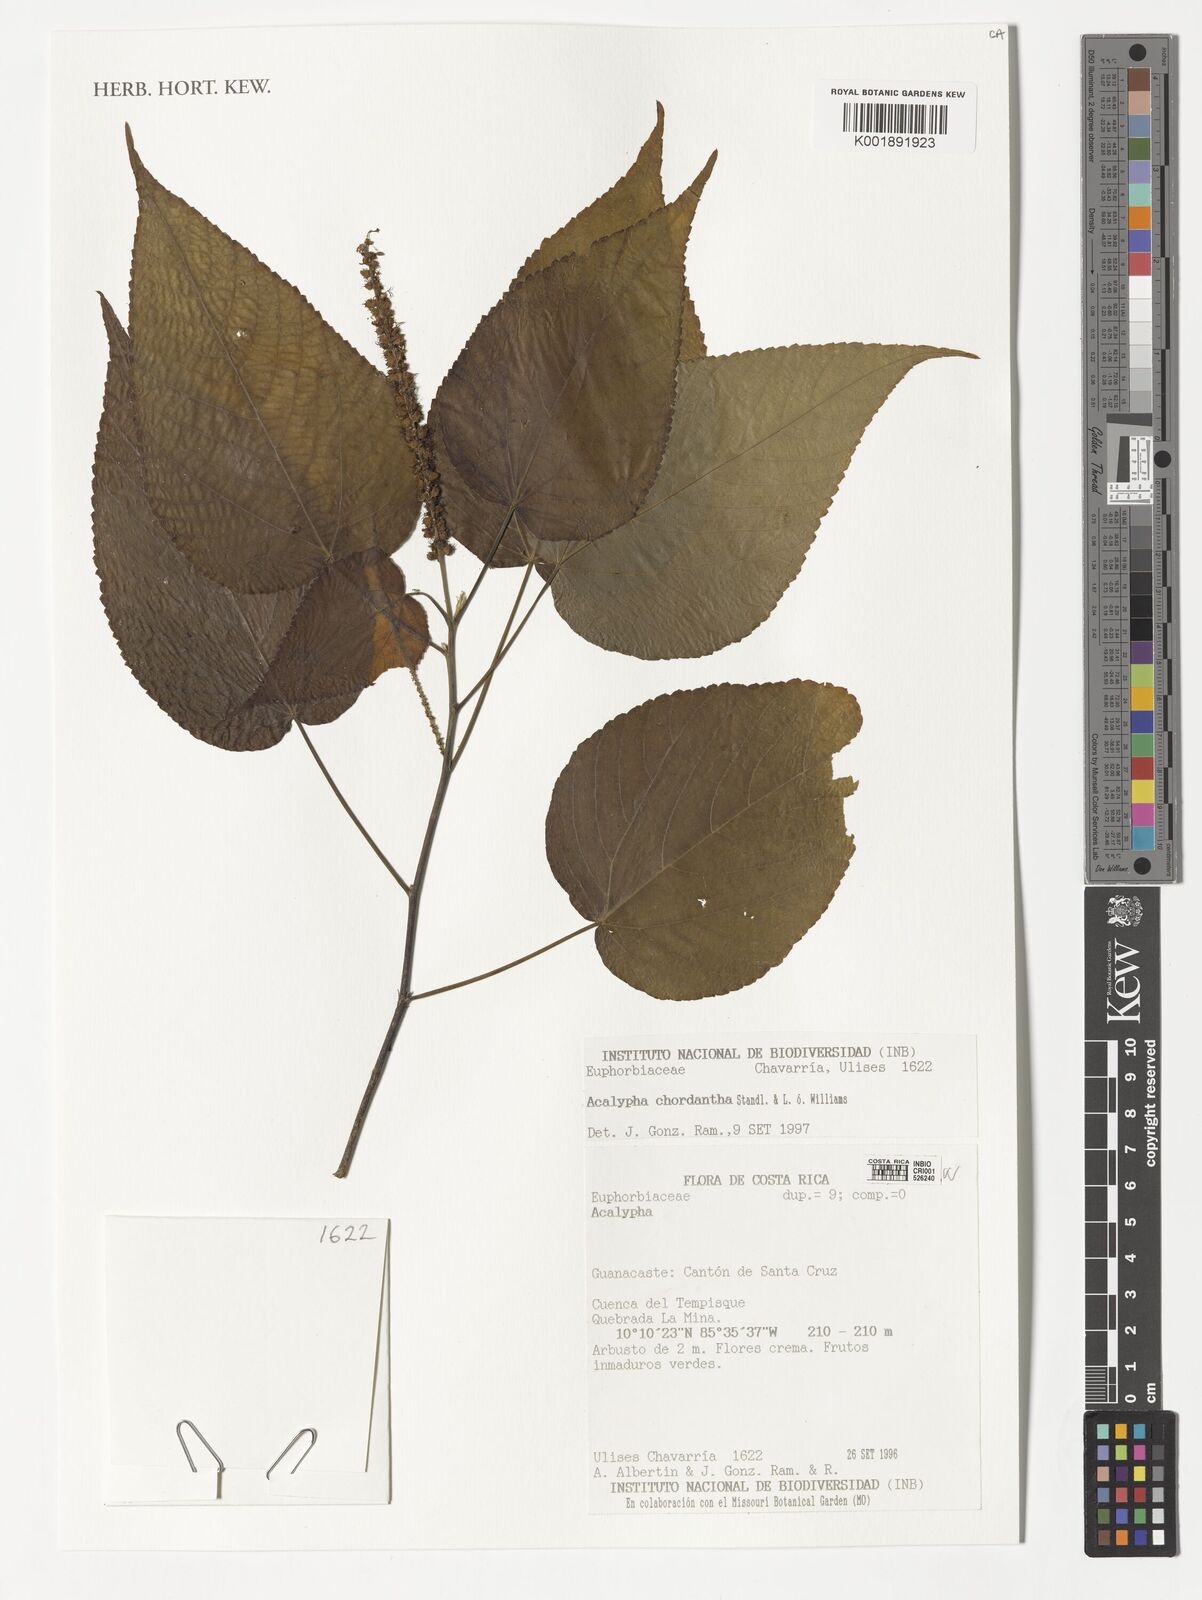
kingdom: Plantae
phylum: Tracheophyta
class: Magnoliopsida
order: Malpighiales
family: Euphorbiaceae
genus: Acalypha
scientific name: Acalypha chordantha
